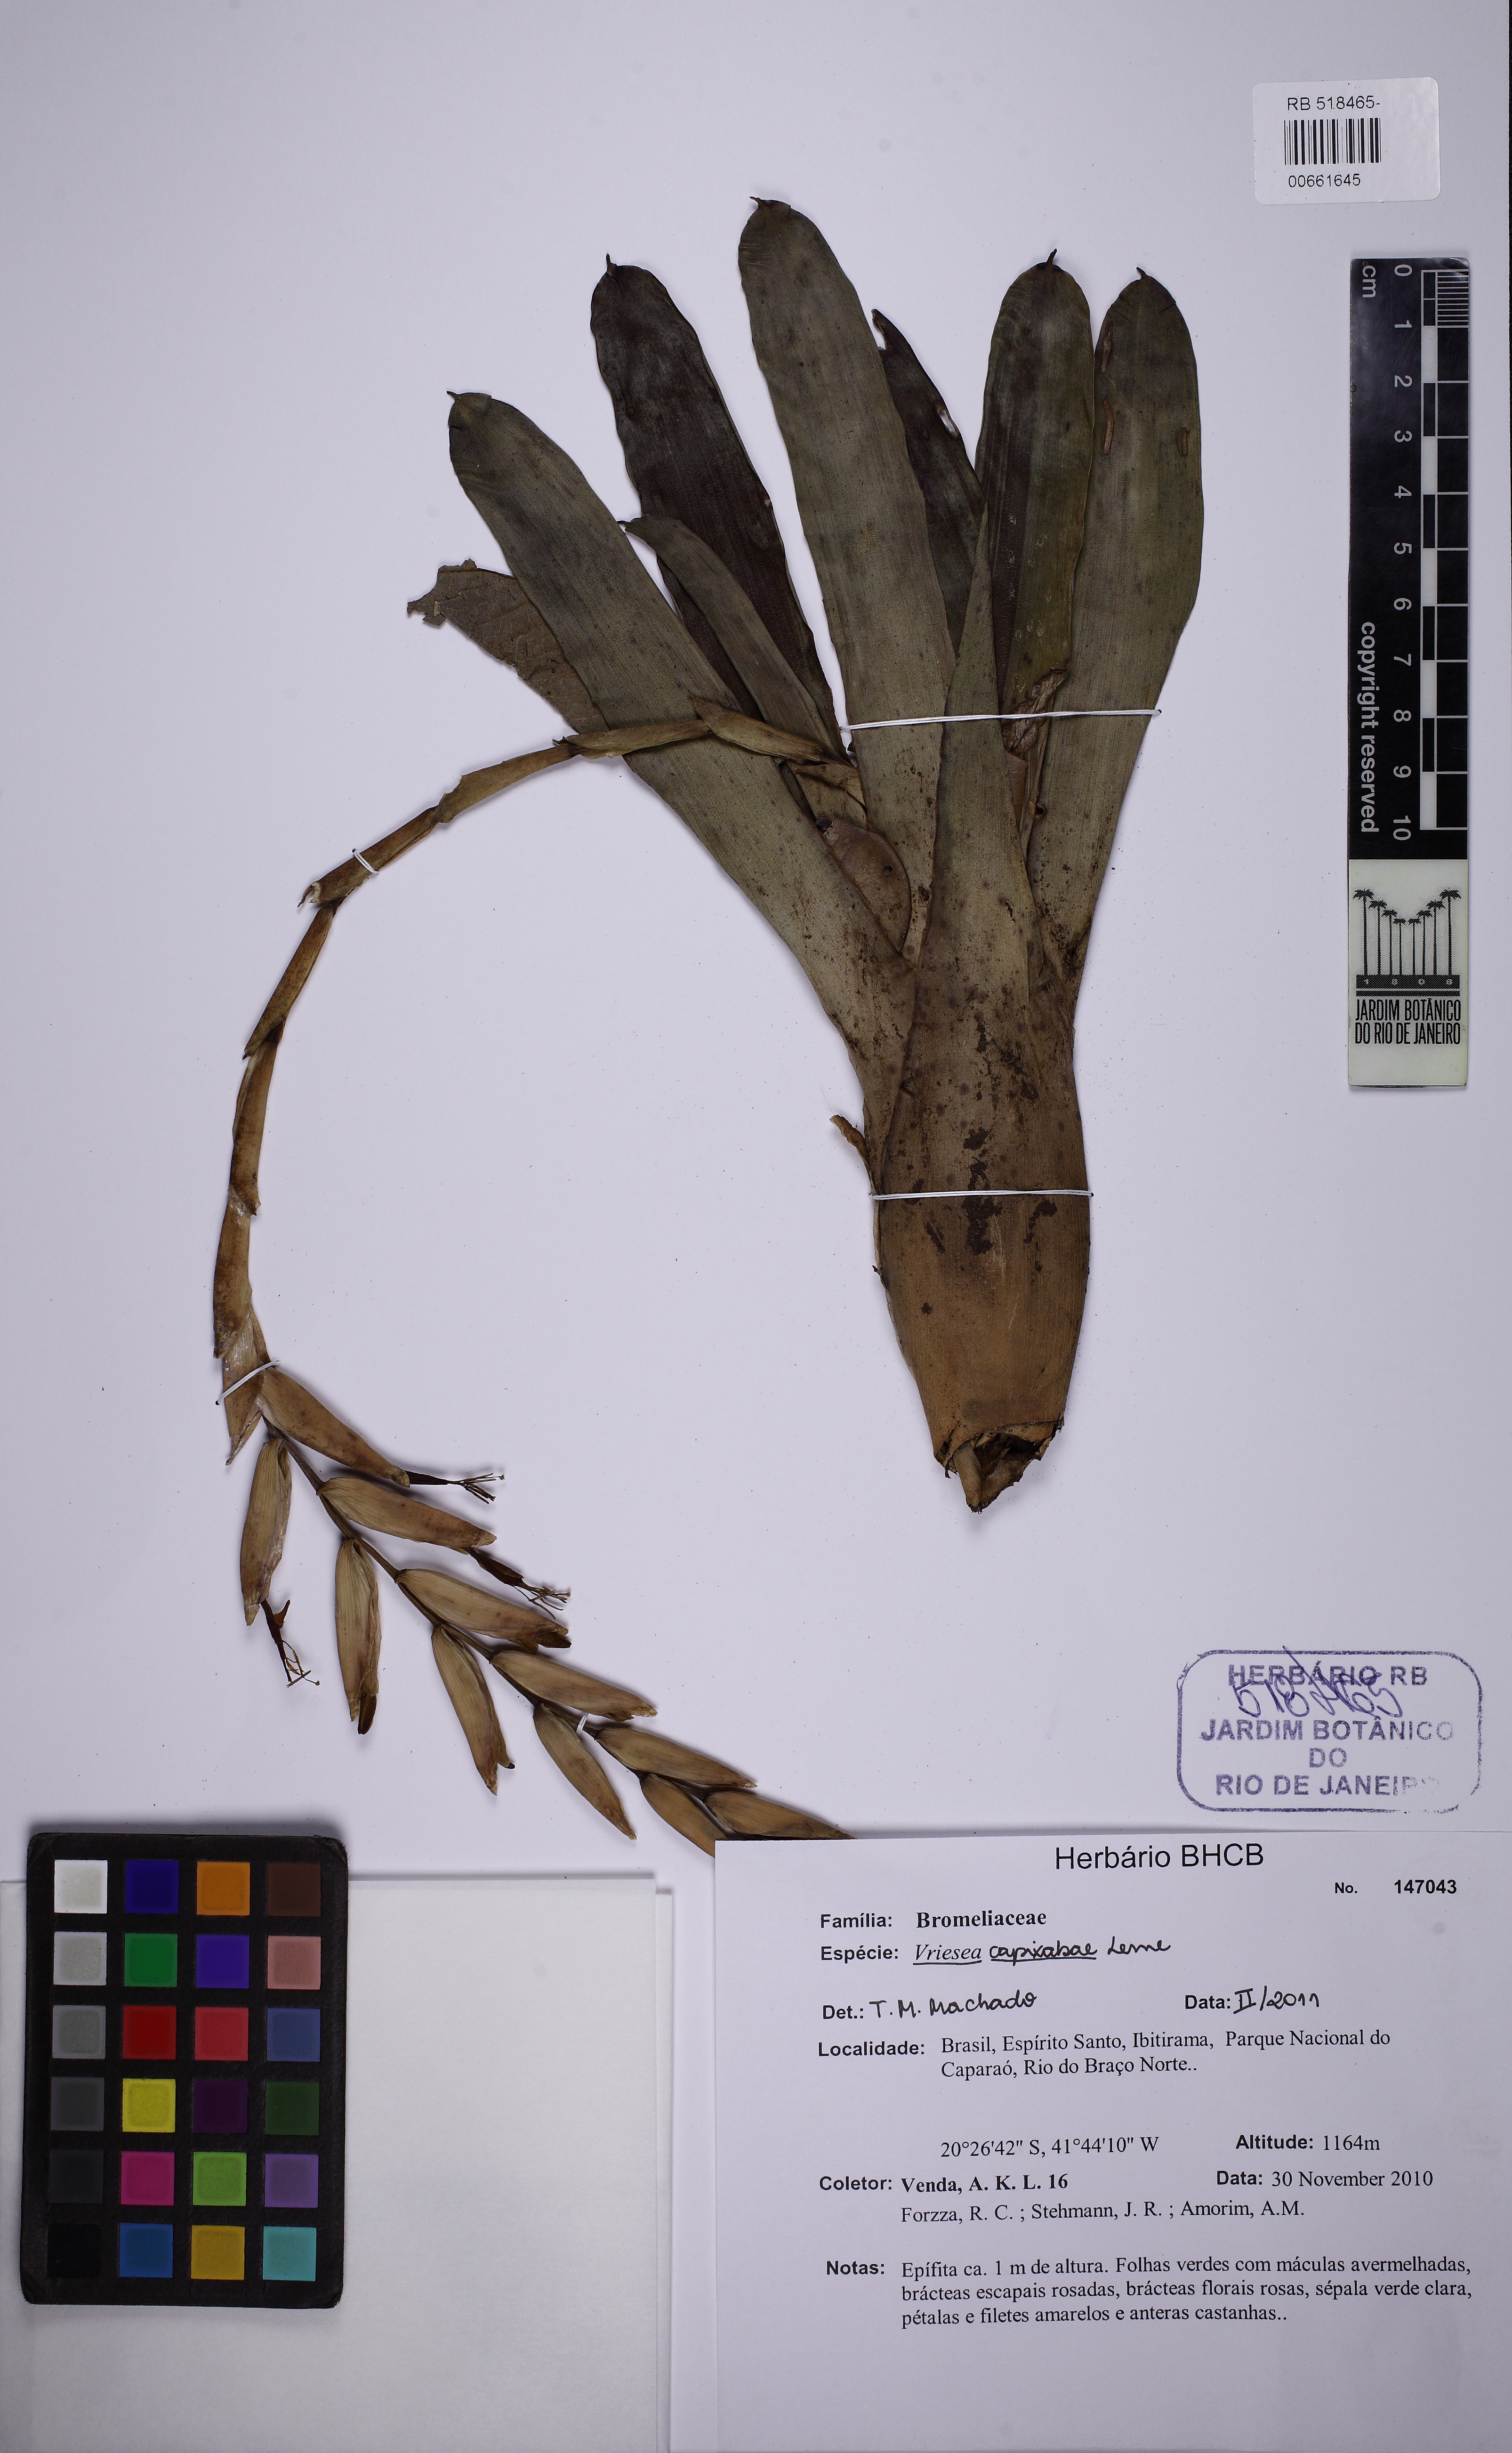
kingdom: Plantae
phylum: Tracheophyta
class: Liliopsida
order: Poales
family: Bromeliaceae
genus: Vriesea
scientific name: Vriesea capixabae
